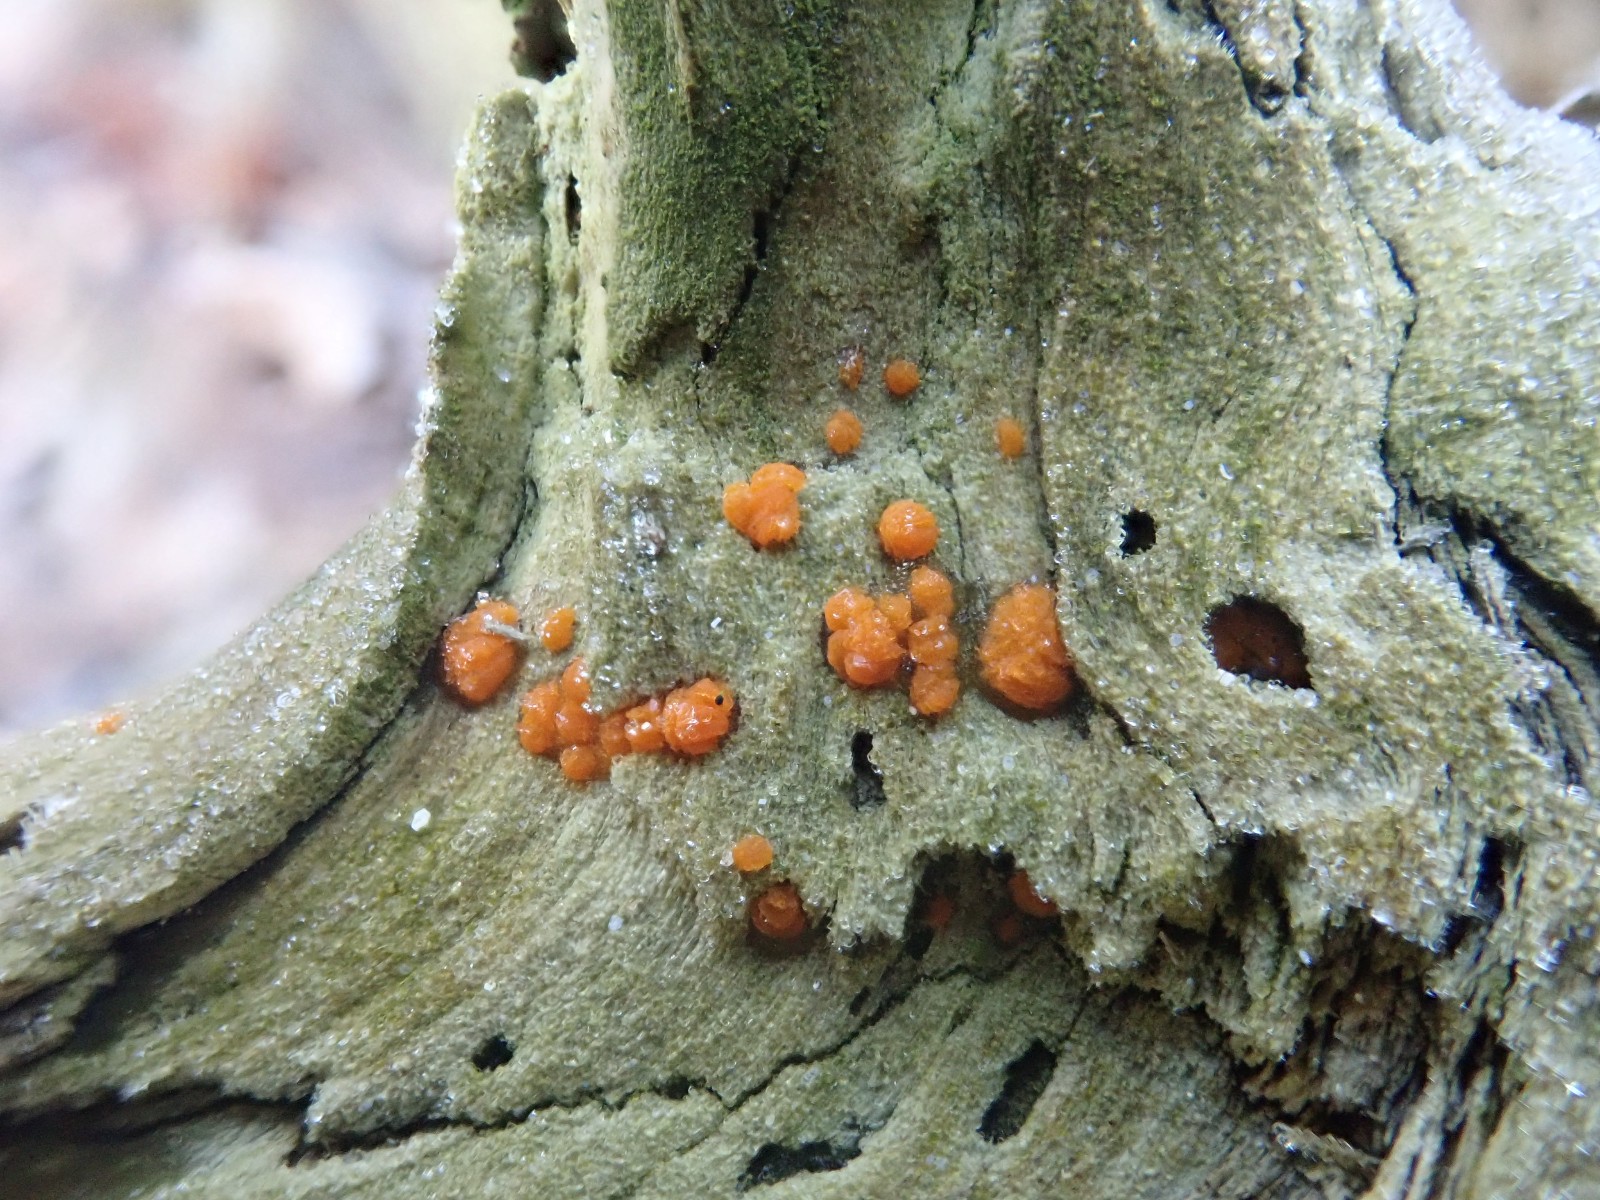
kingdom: Fungi
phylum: Basidiomycota
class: Dacrymycetes
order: Dacrymycetales
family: Dacrymycetaceae
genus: Dacrymyces
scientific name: Dacrymyces stillatus
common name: almindelig tåresvamp
